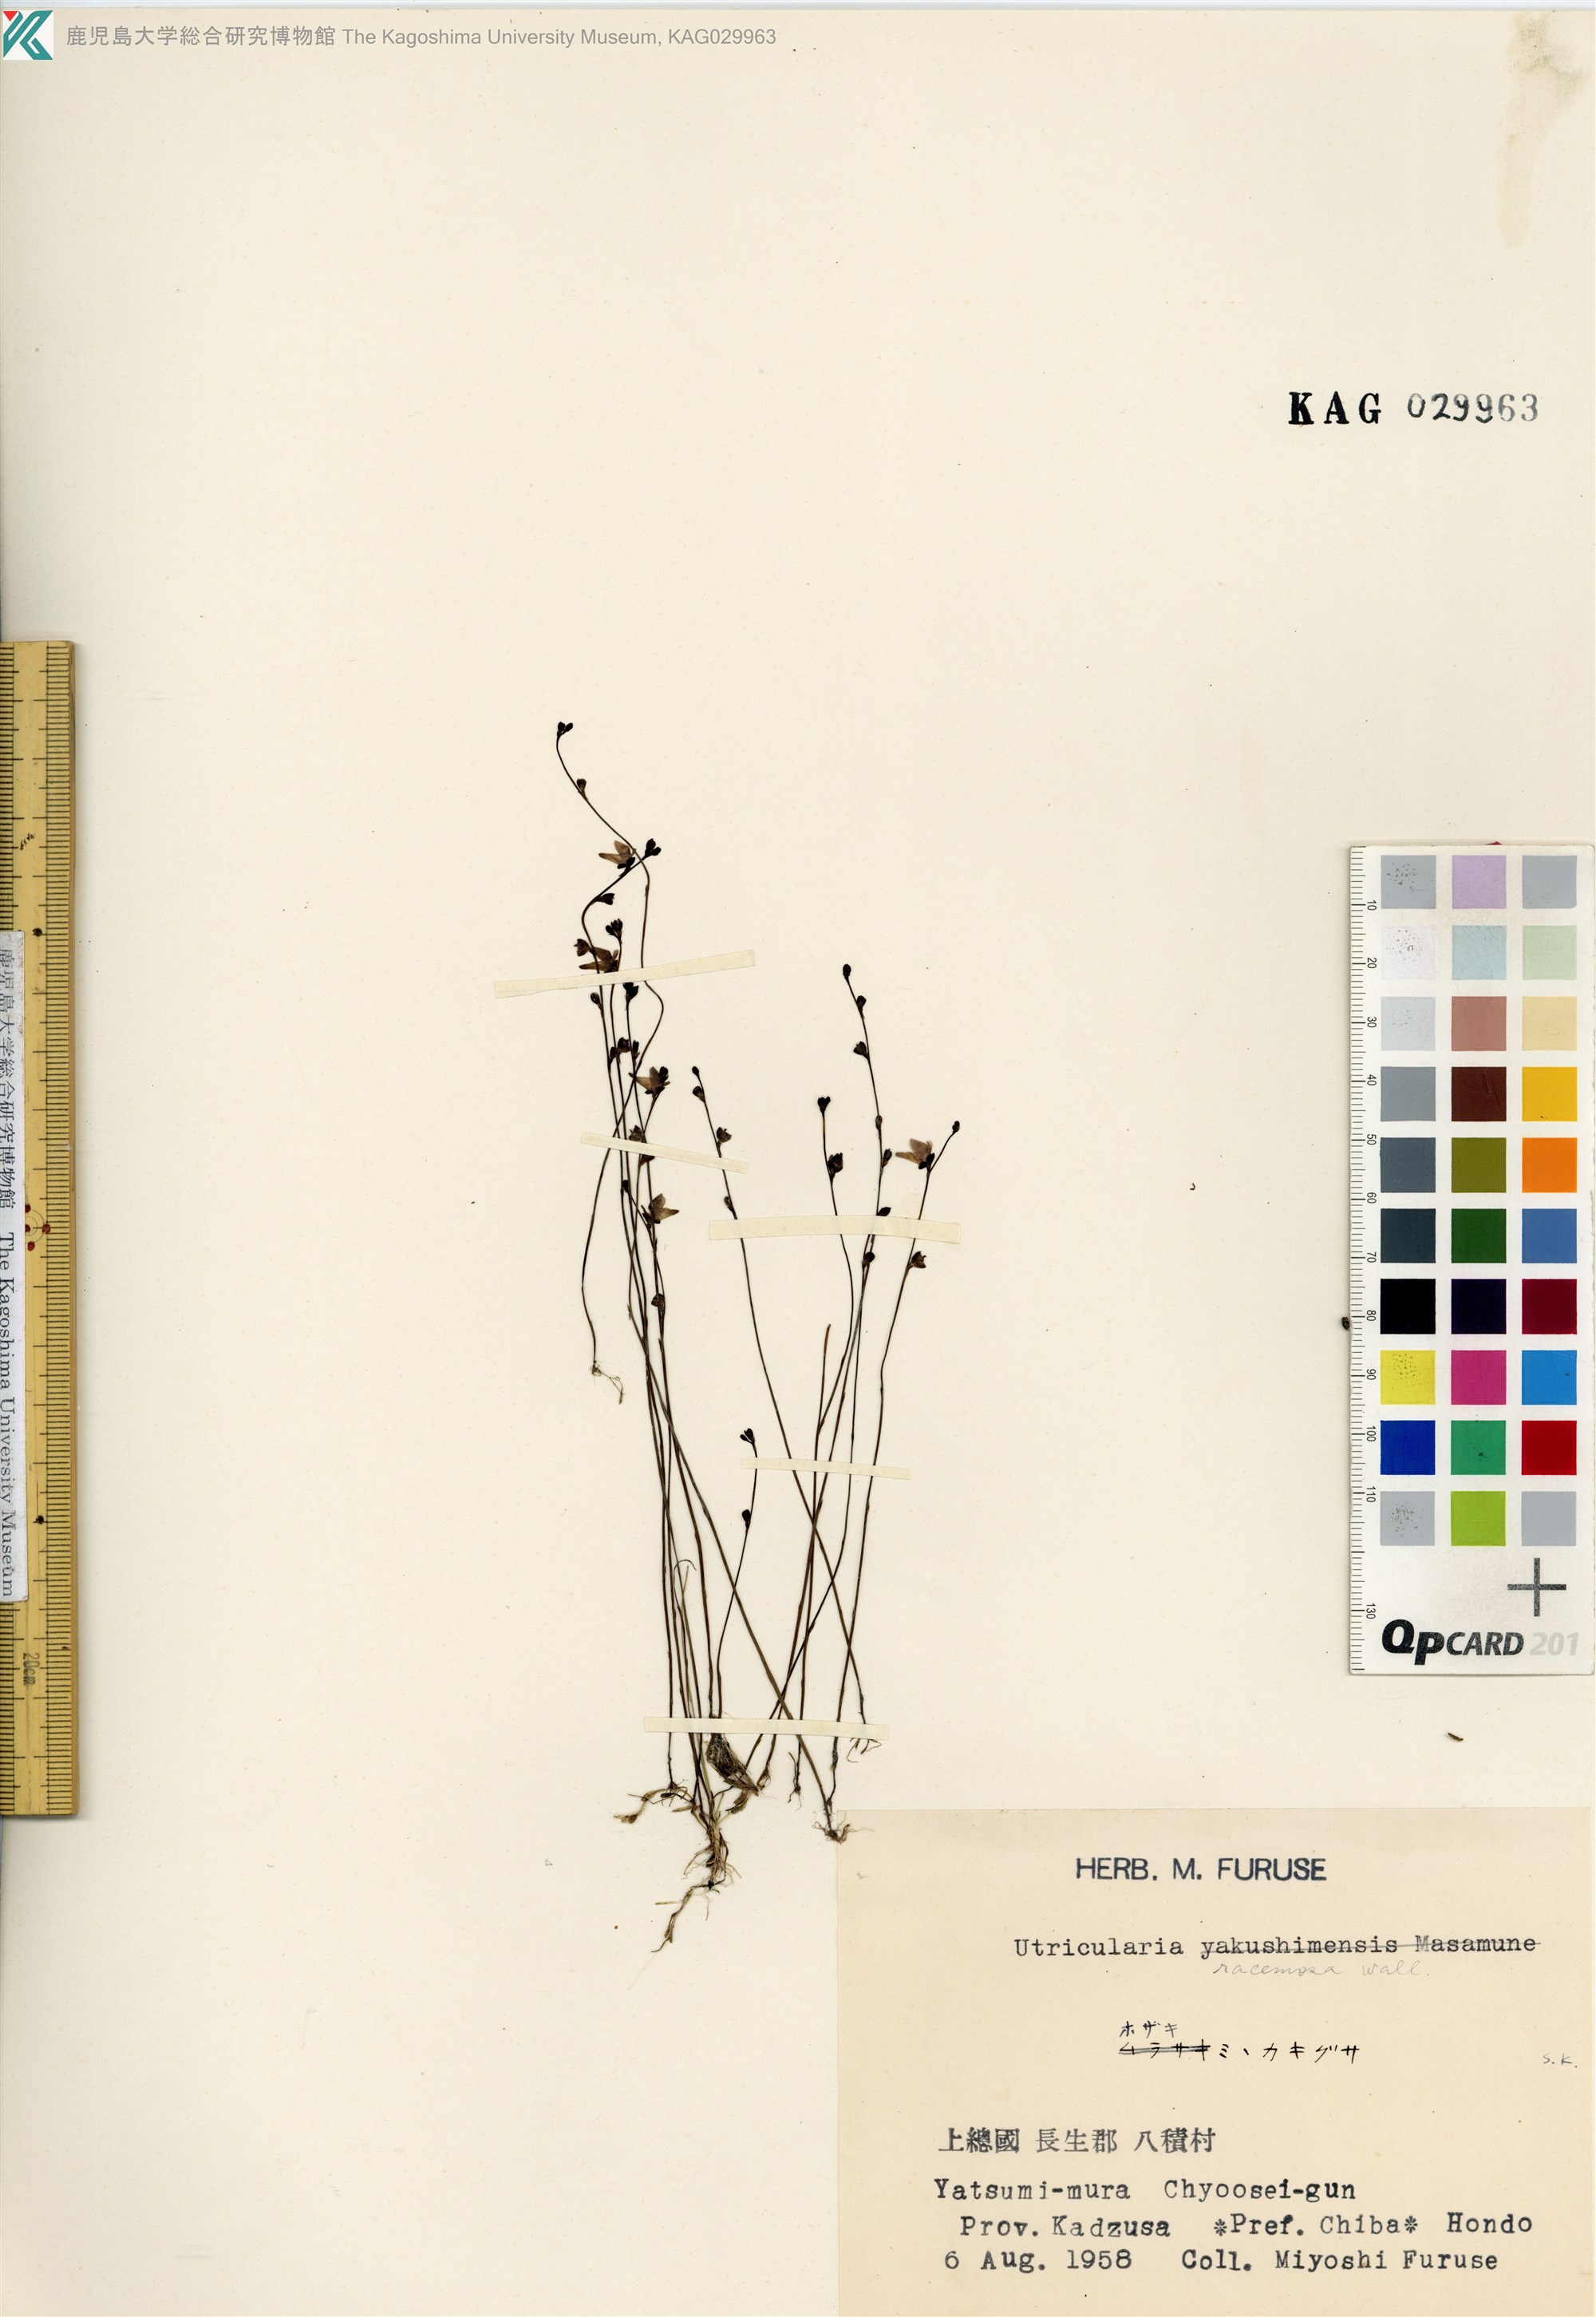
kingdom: Plantae
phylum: Tracheophyta
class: Magnoliopsida
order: Lamiales
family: Lentibulariaceae
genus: Utricularia
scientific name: Utricularia caerulea
